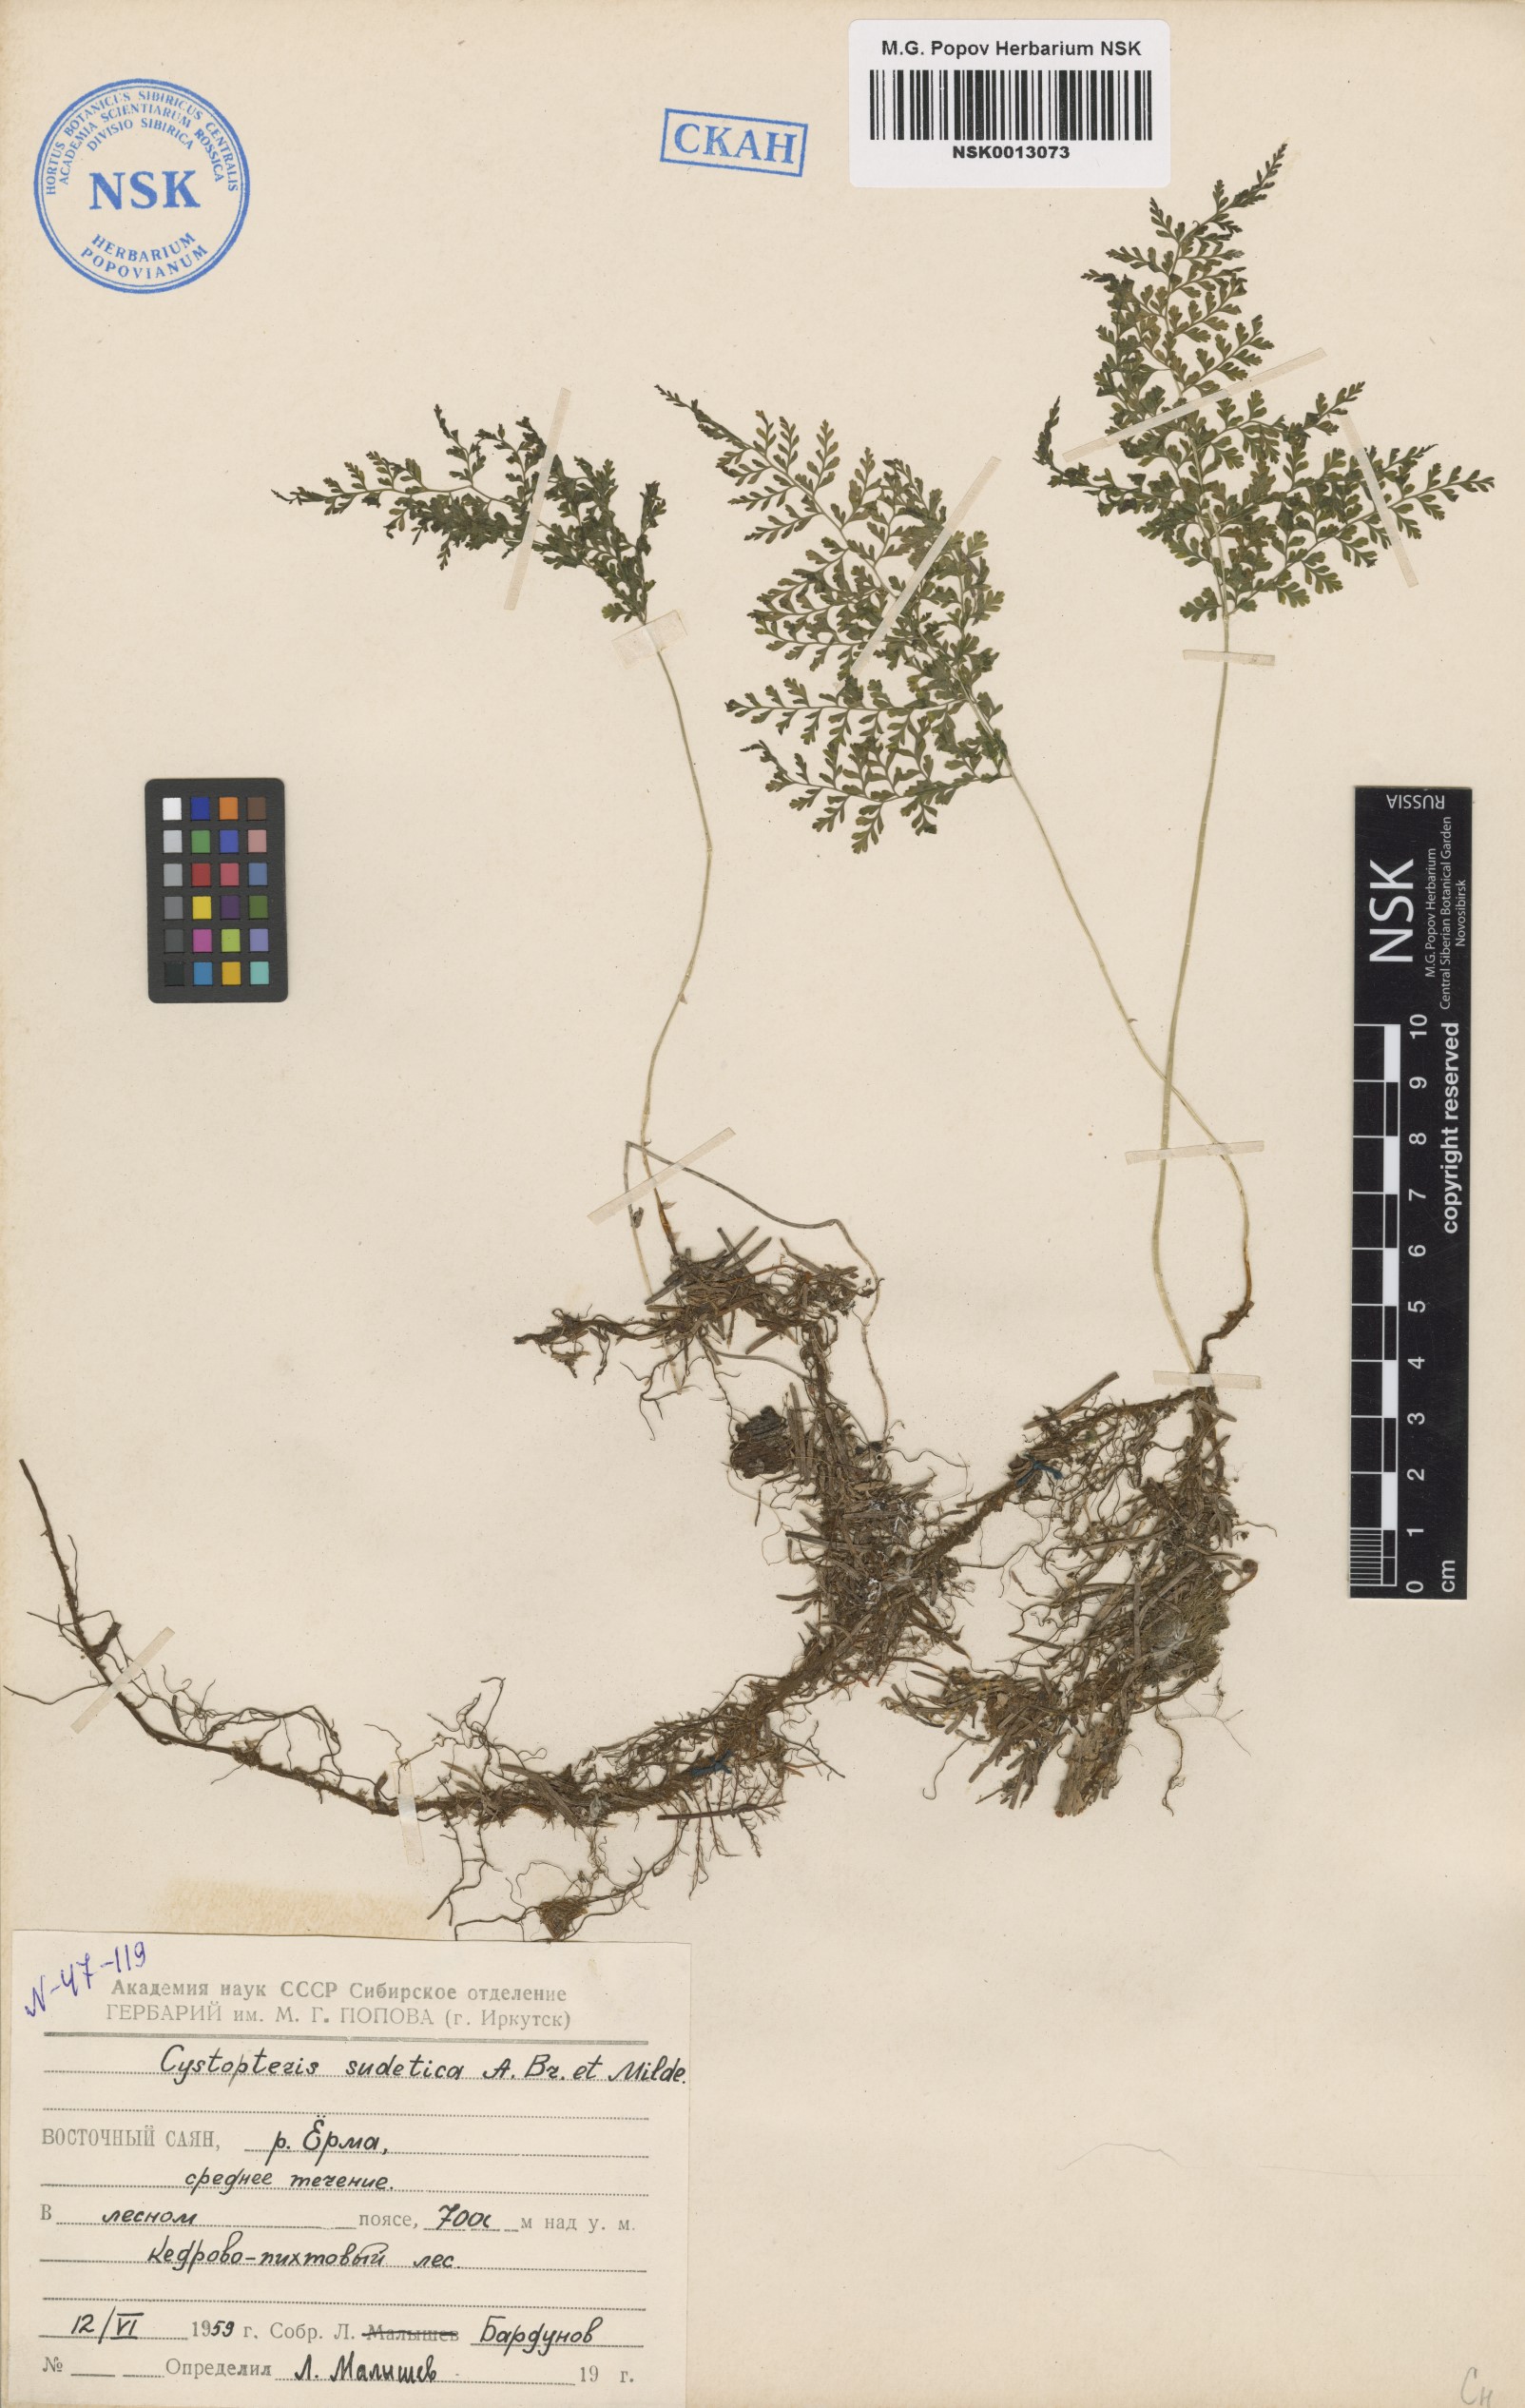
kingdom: Plantae
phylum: Tracheophyta
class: Polypodiopsida
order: Polypodiales
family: Cystopteridaceae
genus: Cystopteris
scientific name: Cystopteris sudetica
